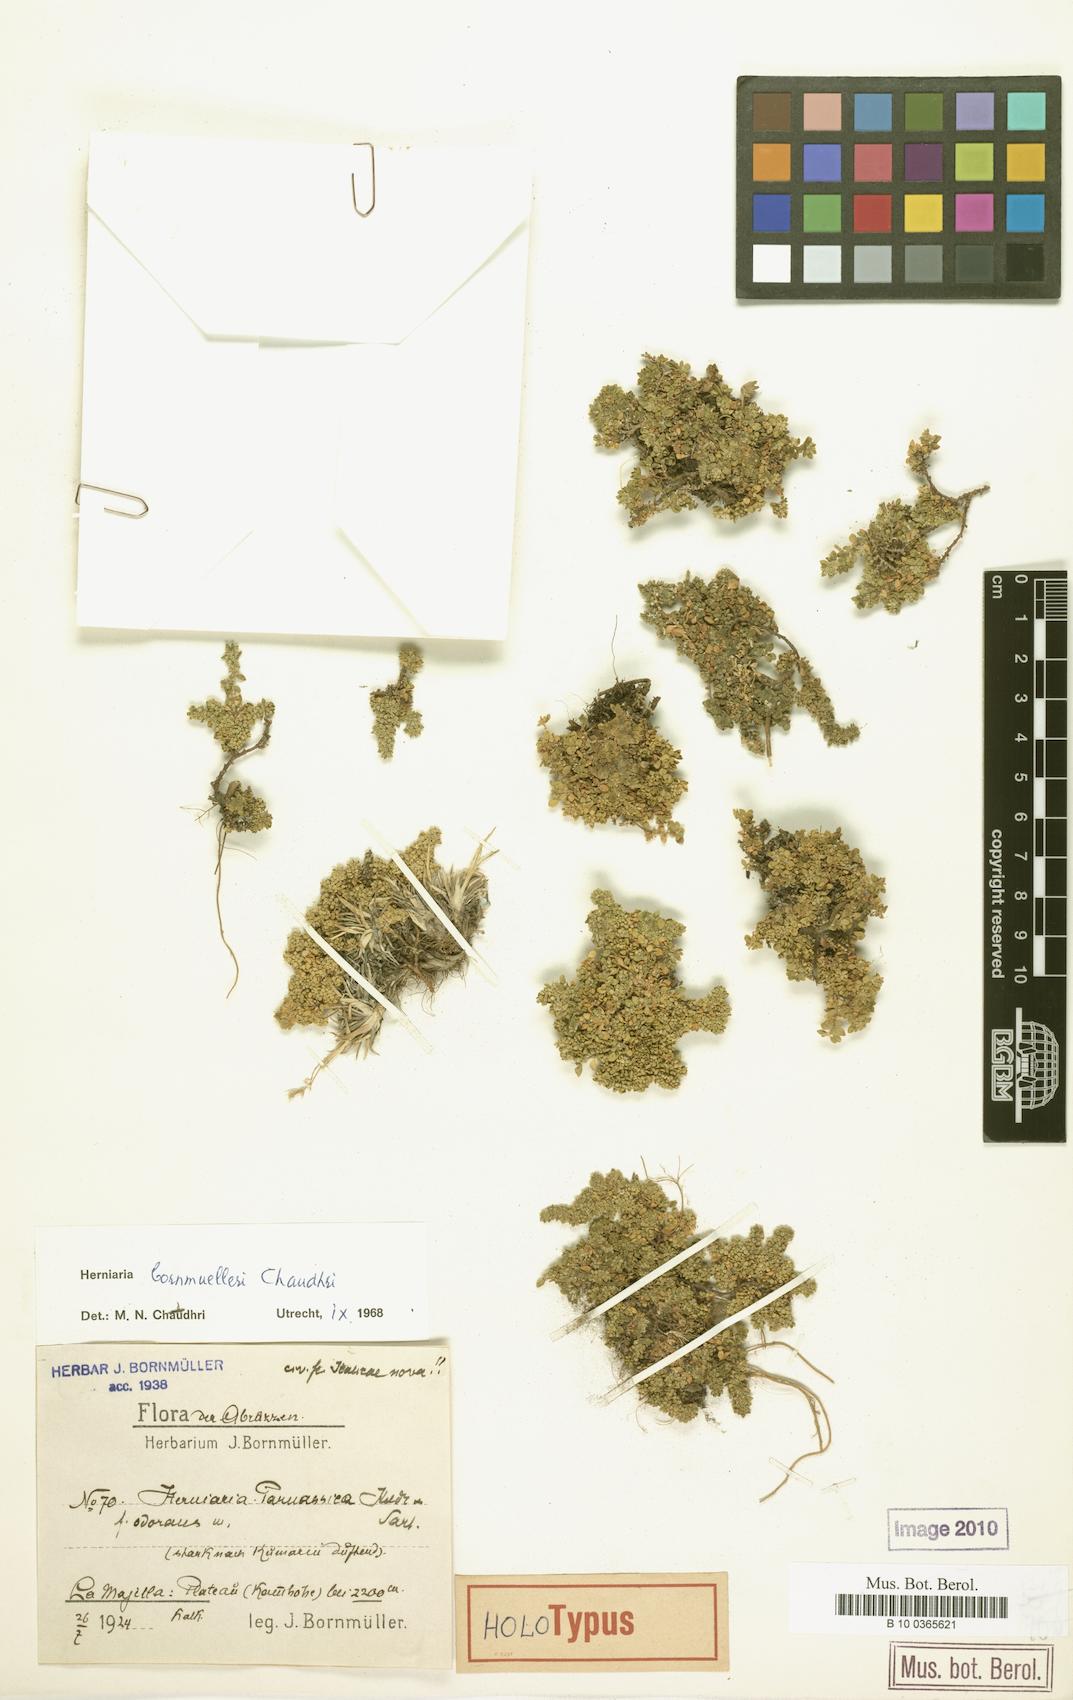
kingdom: Plantae
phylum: Tracheophyta
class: Magnoliopsida
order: Caryophyllales
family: Caryophyllaceae
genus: Herniaria
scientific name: Herniaria bornmuelleri
